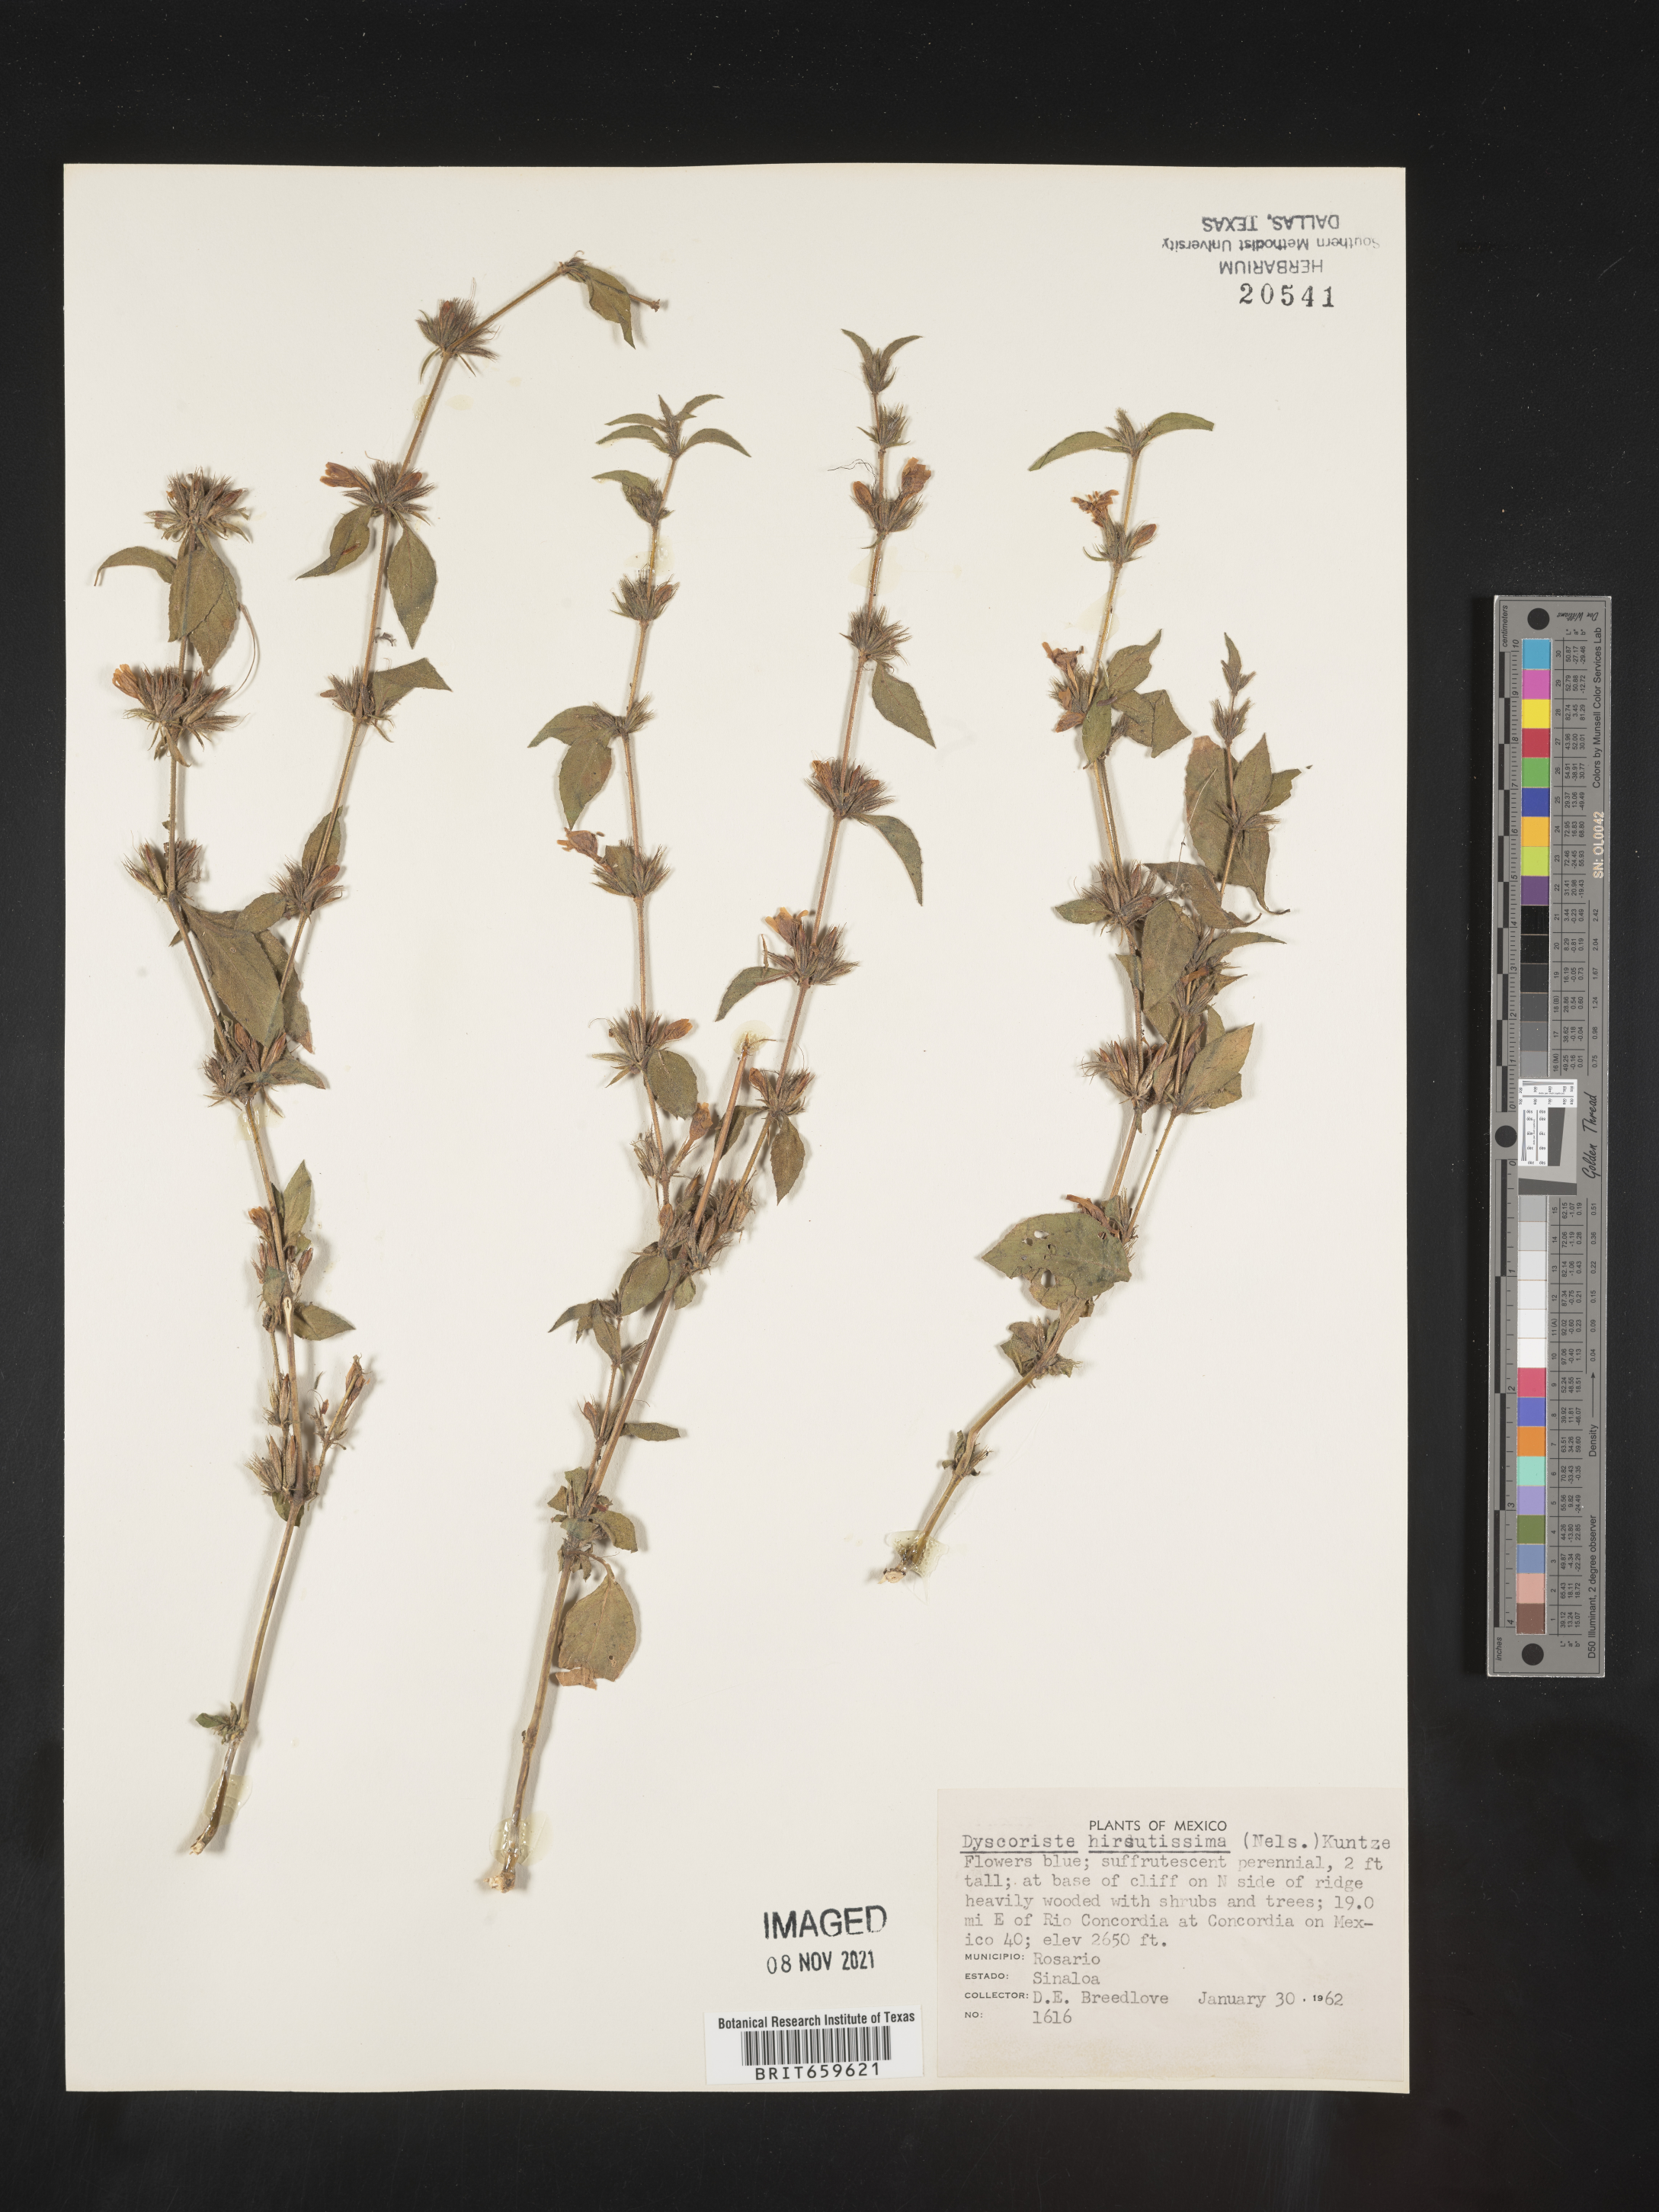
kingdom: Plantae
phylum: Tracheophyta
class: Magnoliopsida
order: Lamiales
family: Acanthaceae
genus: Dyschoriste
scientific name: Dyschoriste
